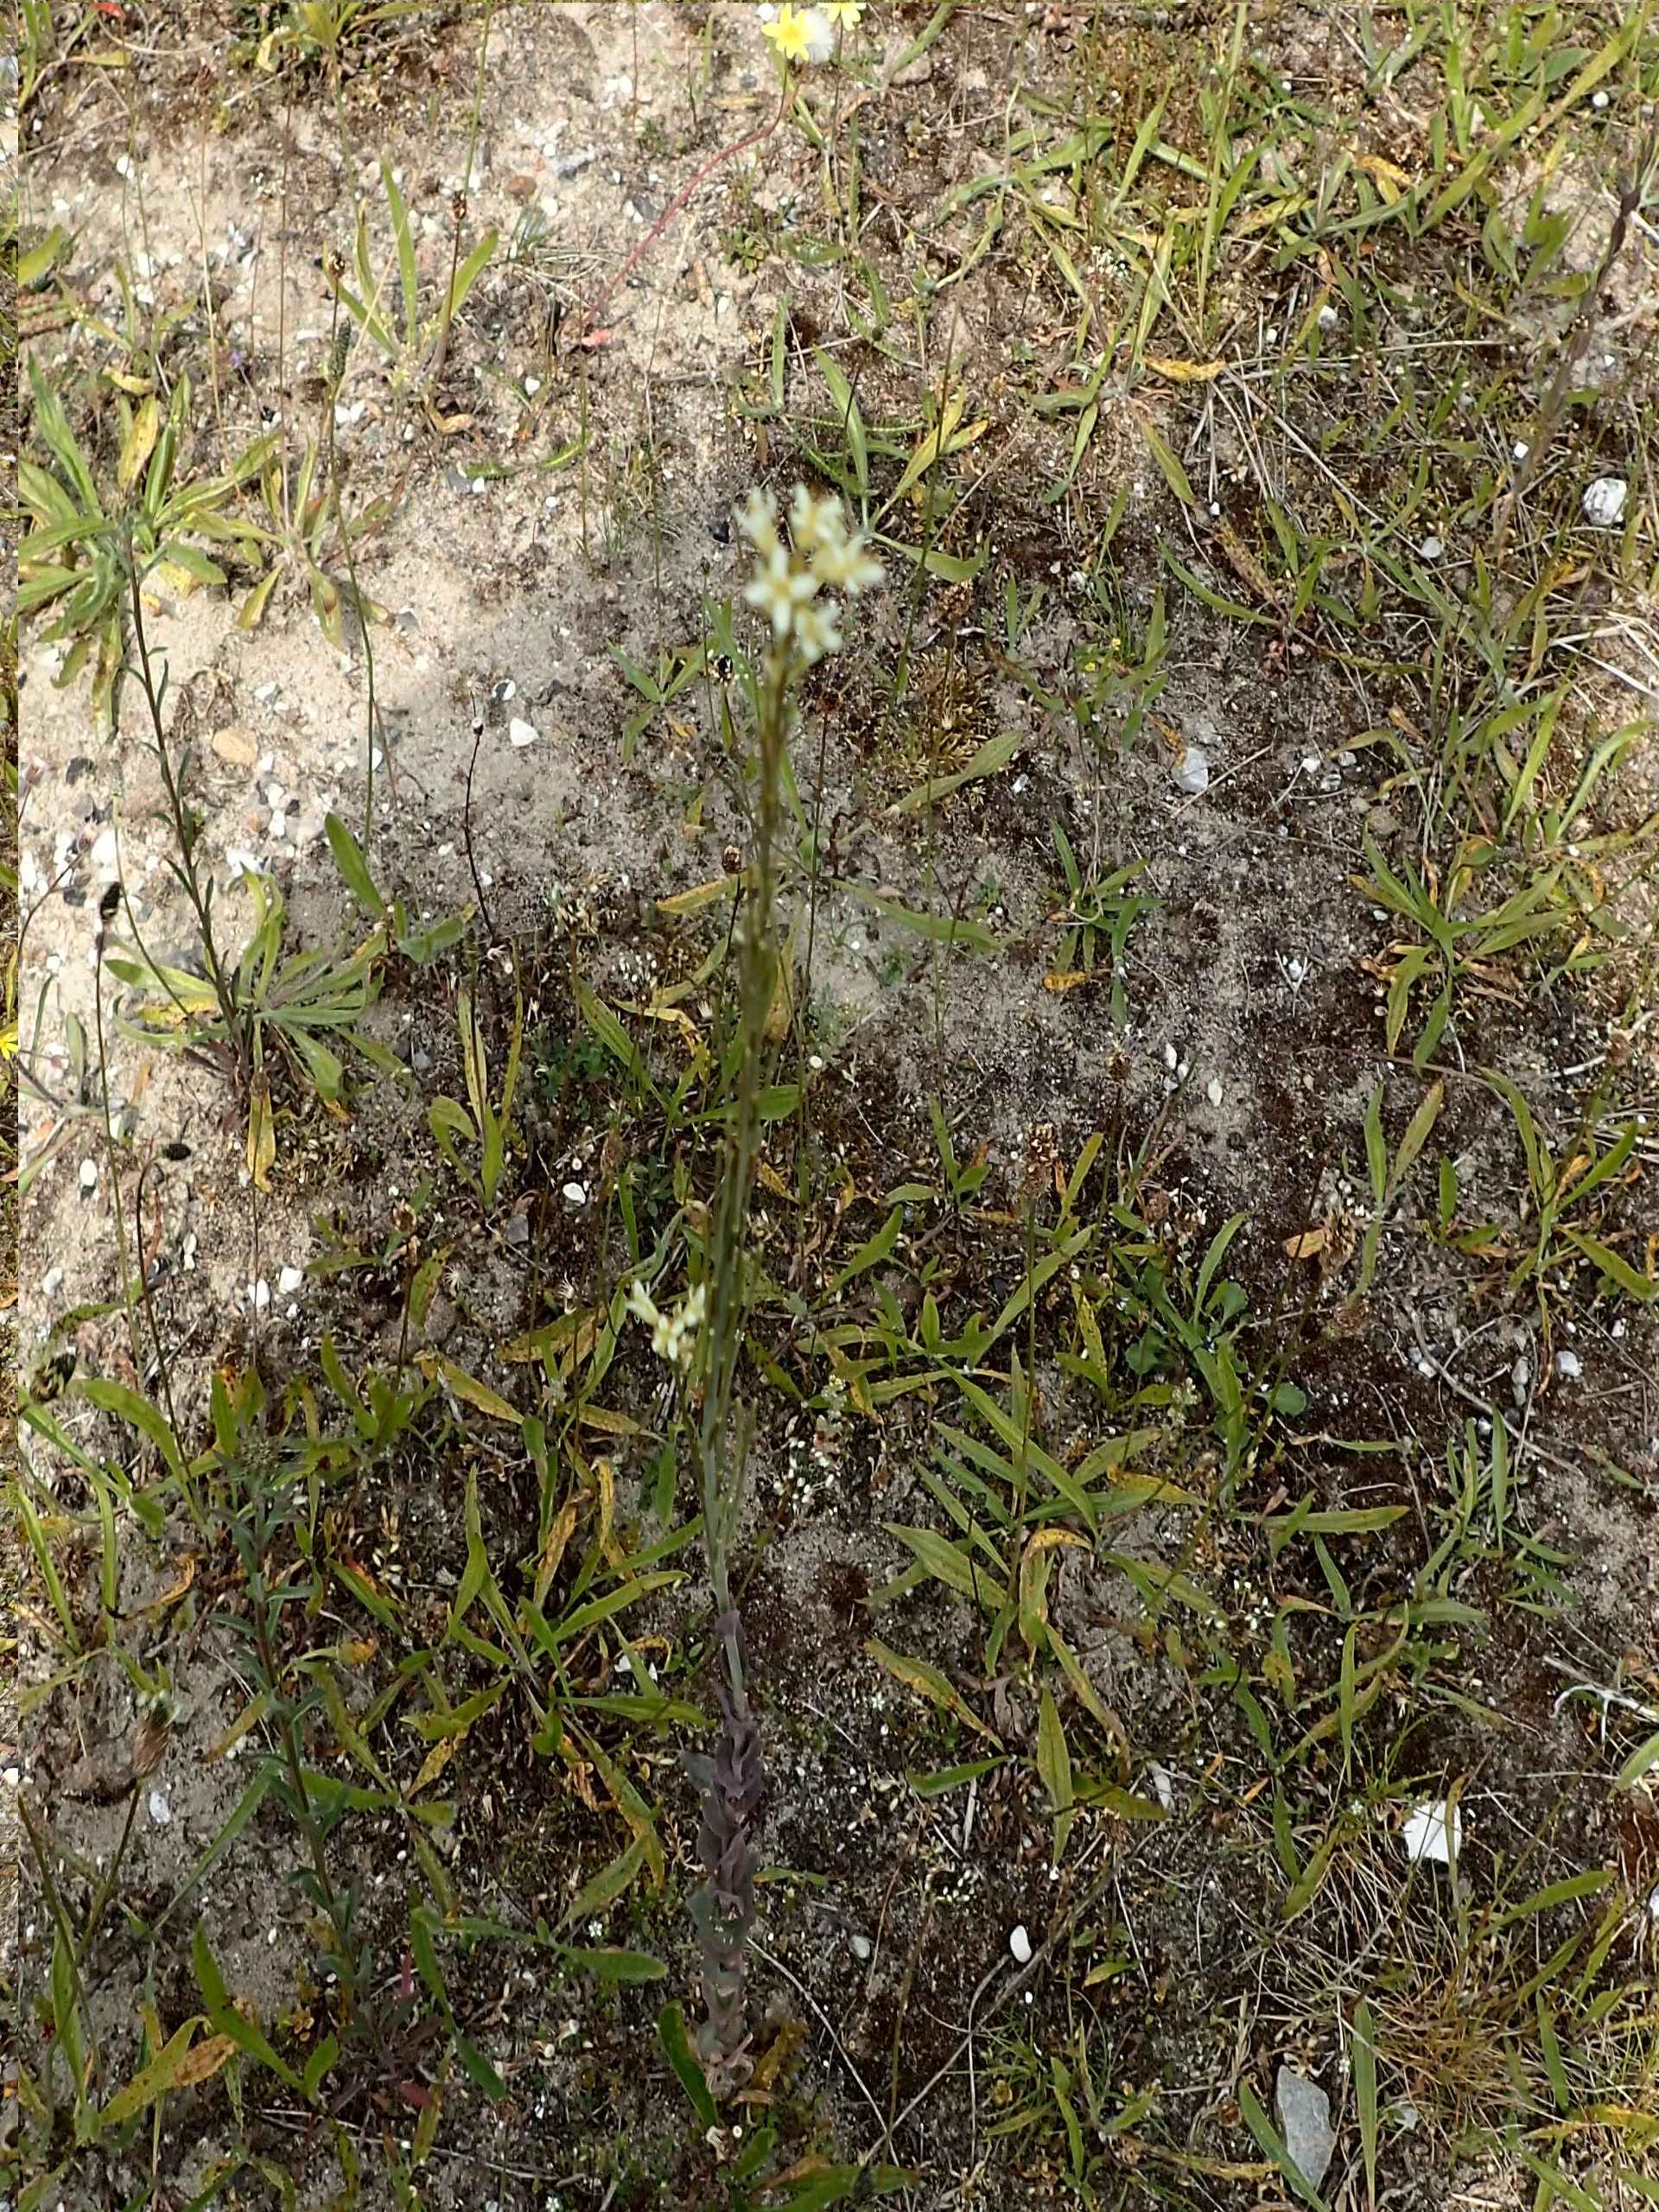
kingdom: Plantae
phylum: Tracheophyta
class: Magnoliopsida
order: Brassicales
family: Brassicaceae
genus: Turritis
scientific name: Turritis glabra
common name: Tårnurt
